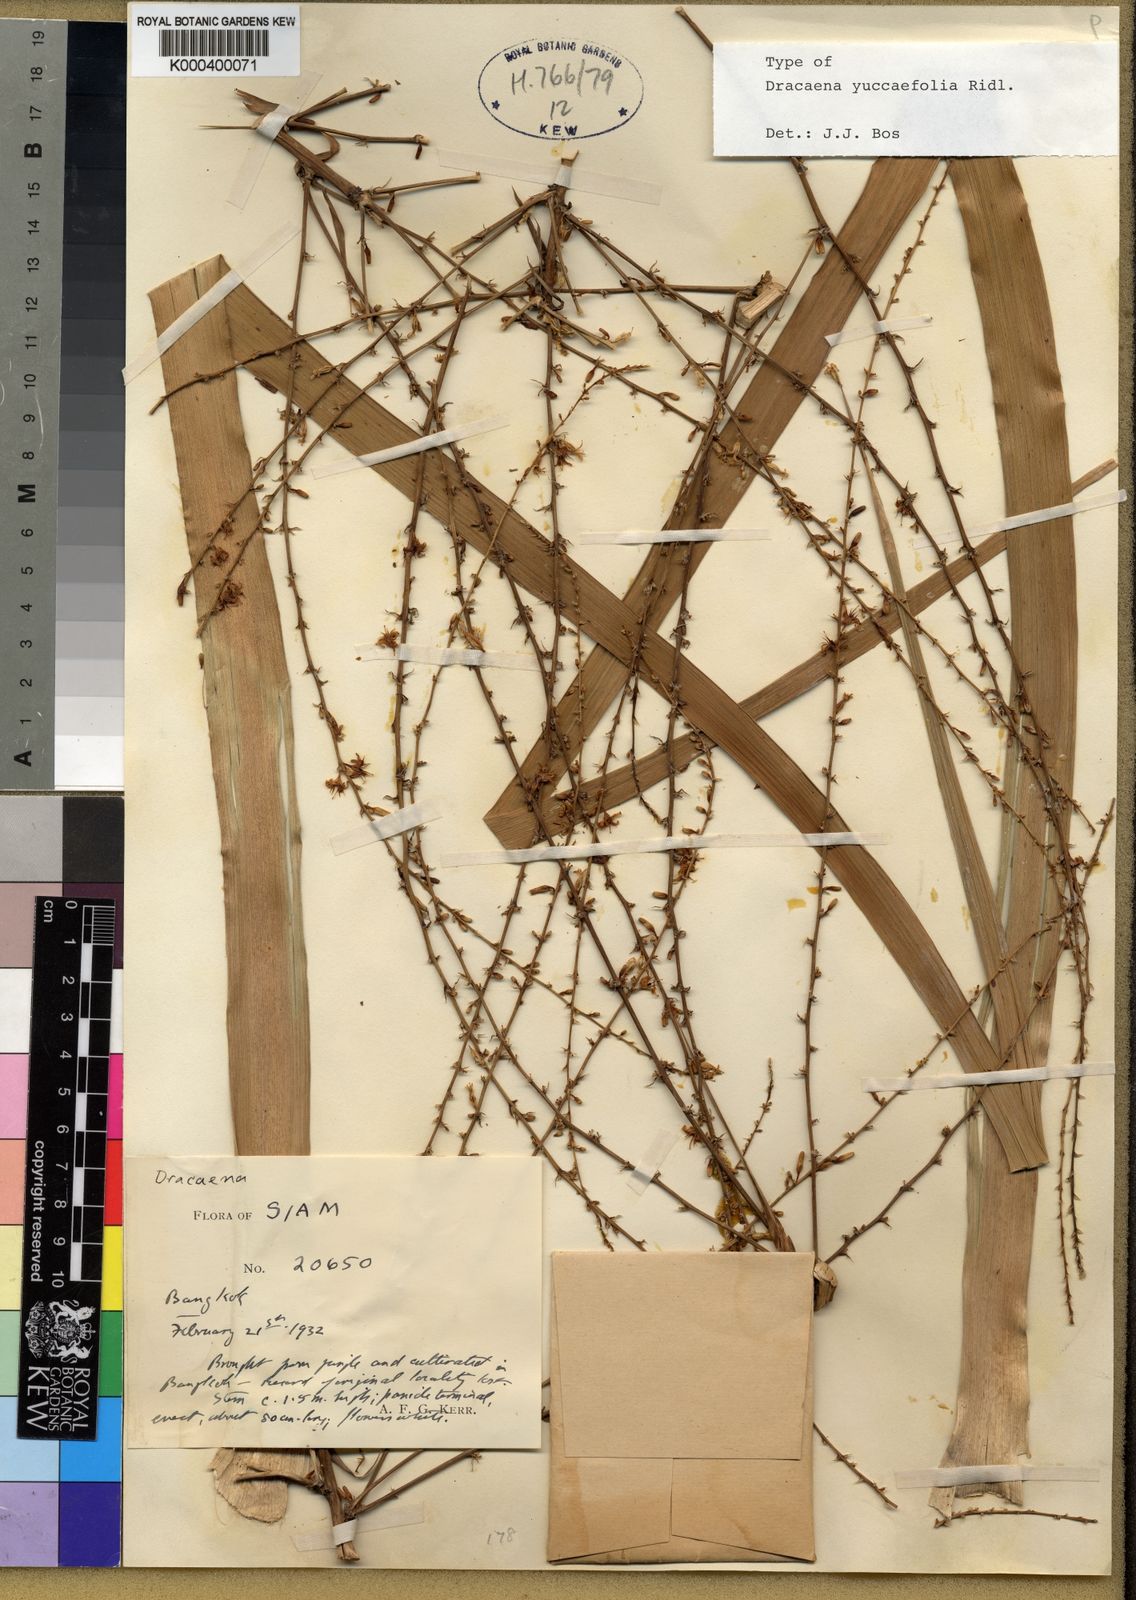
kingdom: Plantae
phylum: Tracheophyta
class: Liliopsida
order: Asparagales
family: Asparagaceae
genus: Dracaena
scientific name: Dracaena yuccifolia
